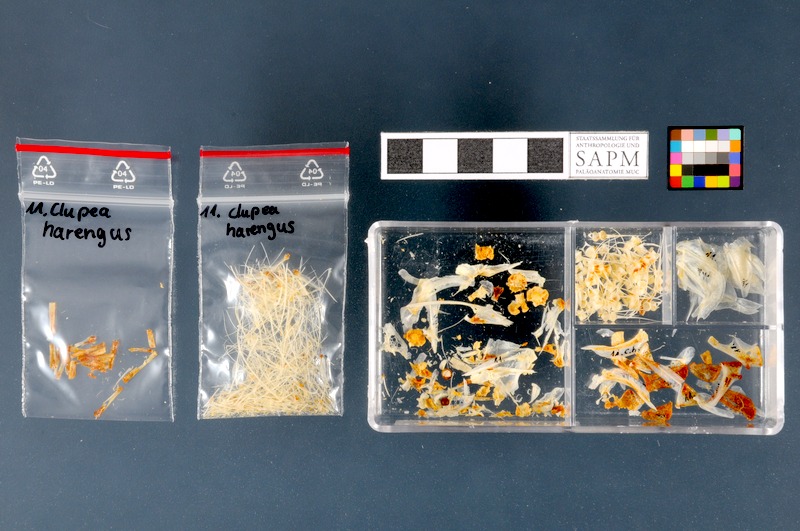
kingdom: Animalia
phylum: Chordata
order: Clupeiformes
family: Clupeidae
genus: Clupea
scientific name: Clupea harengus
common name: Herring
